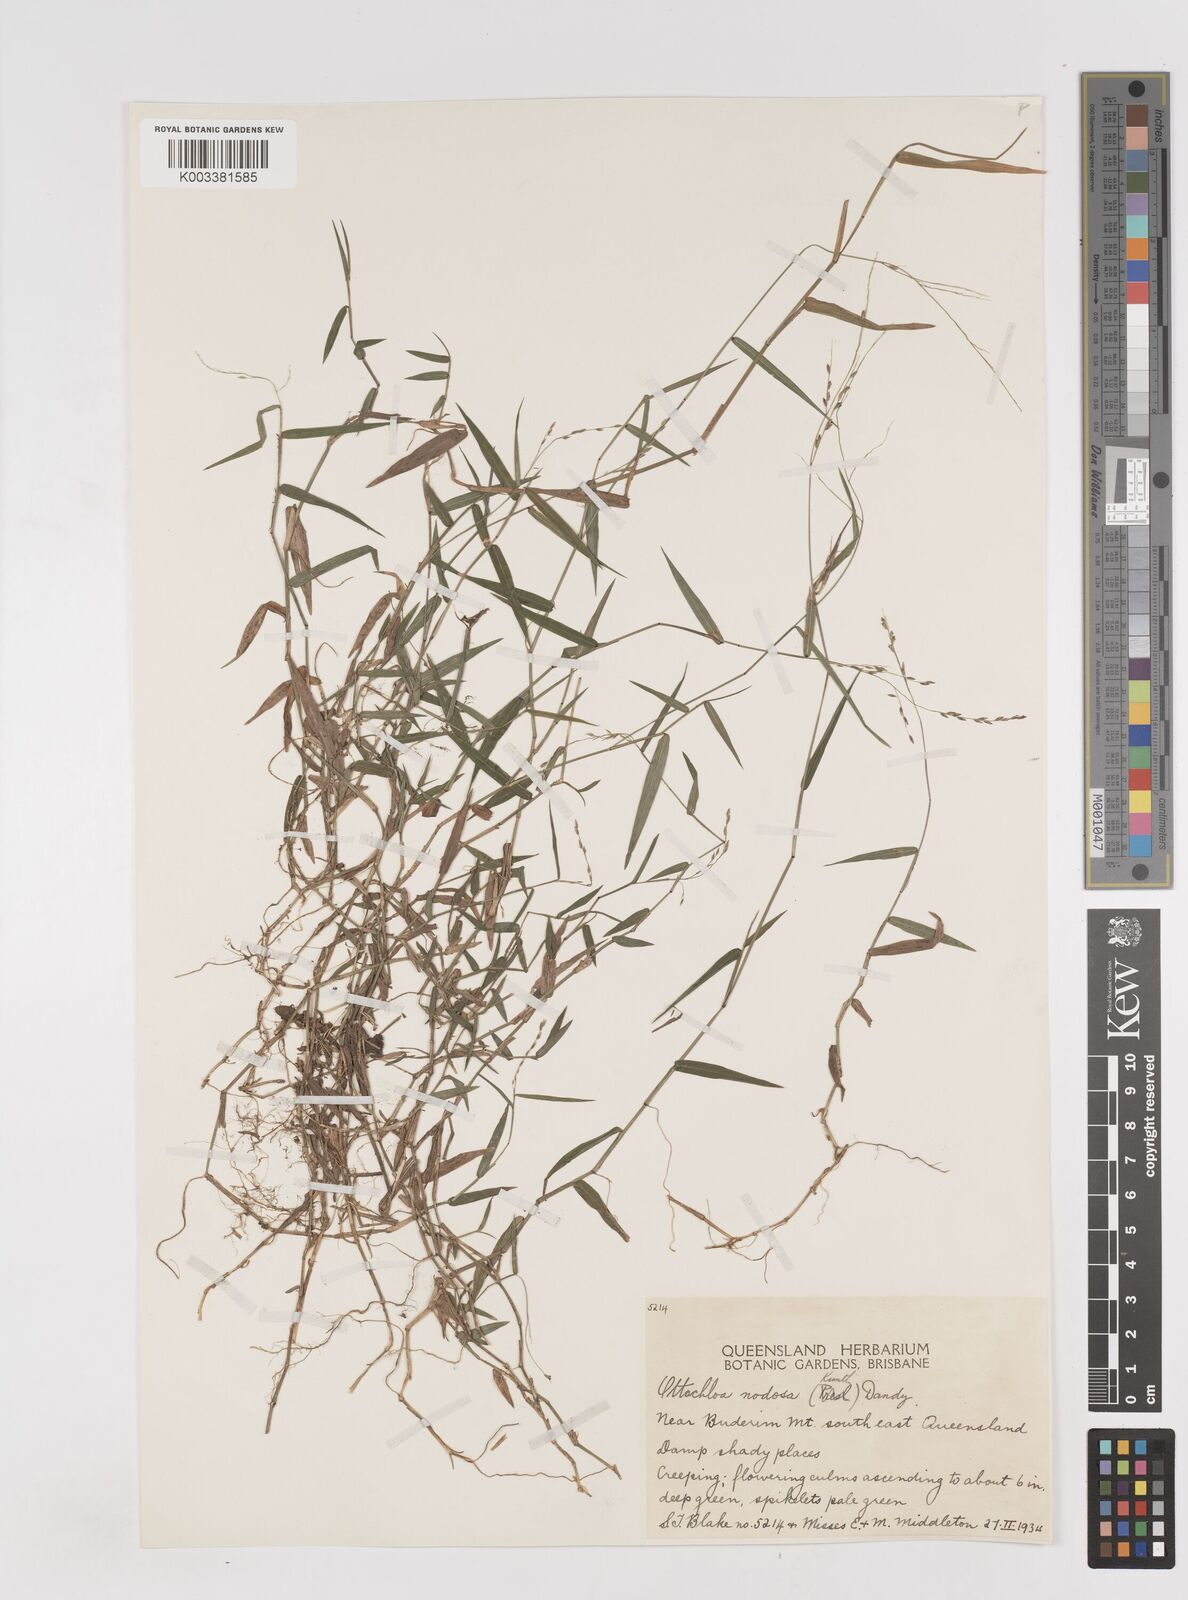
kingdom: Plantae
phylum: Tracheophyta
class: Liliopsida
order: Poales
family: Poaceae
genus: Ottochloa
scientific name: Ottochloa nodosa
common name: Slender-panic grass
